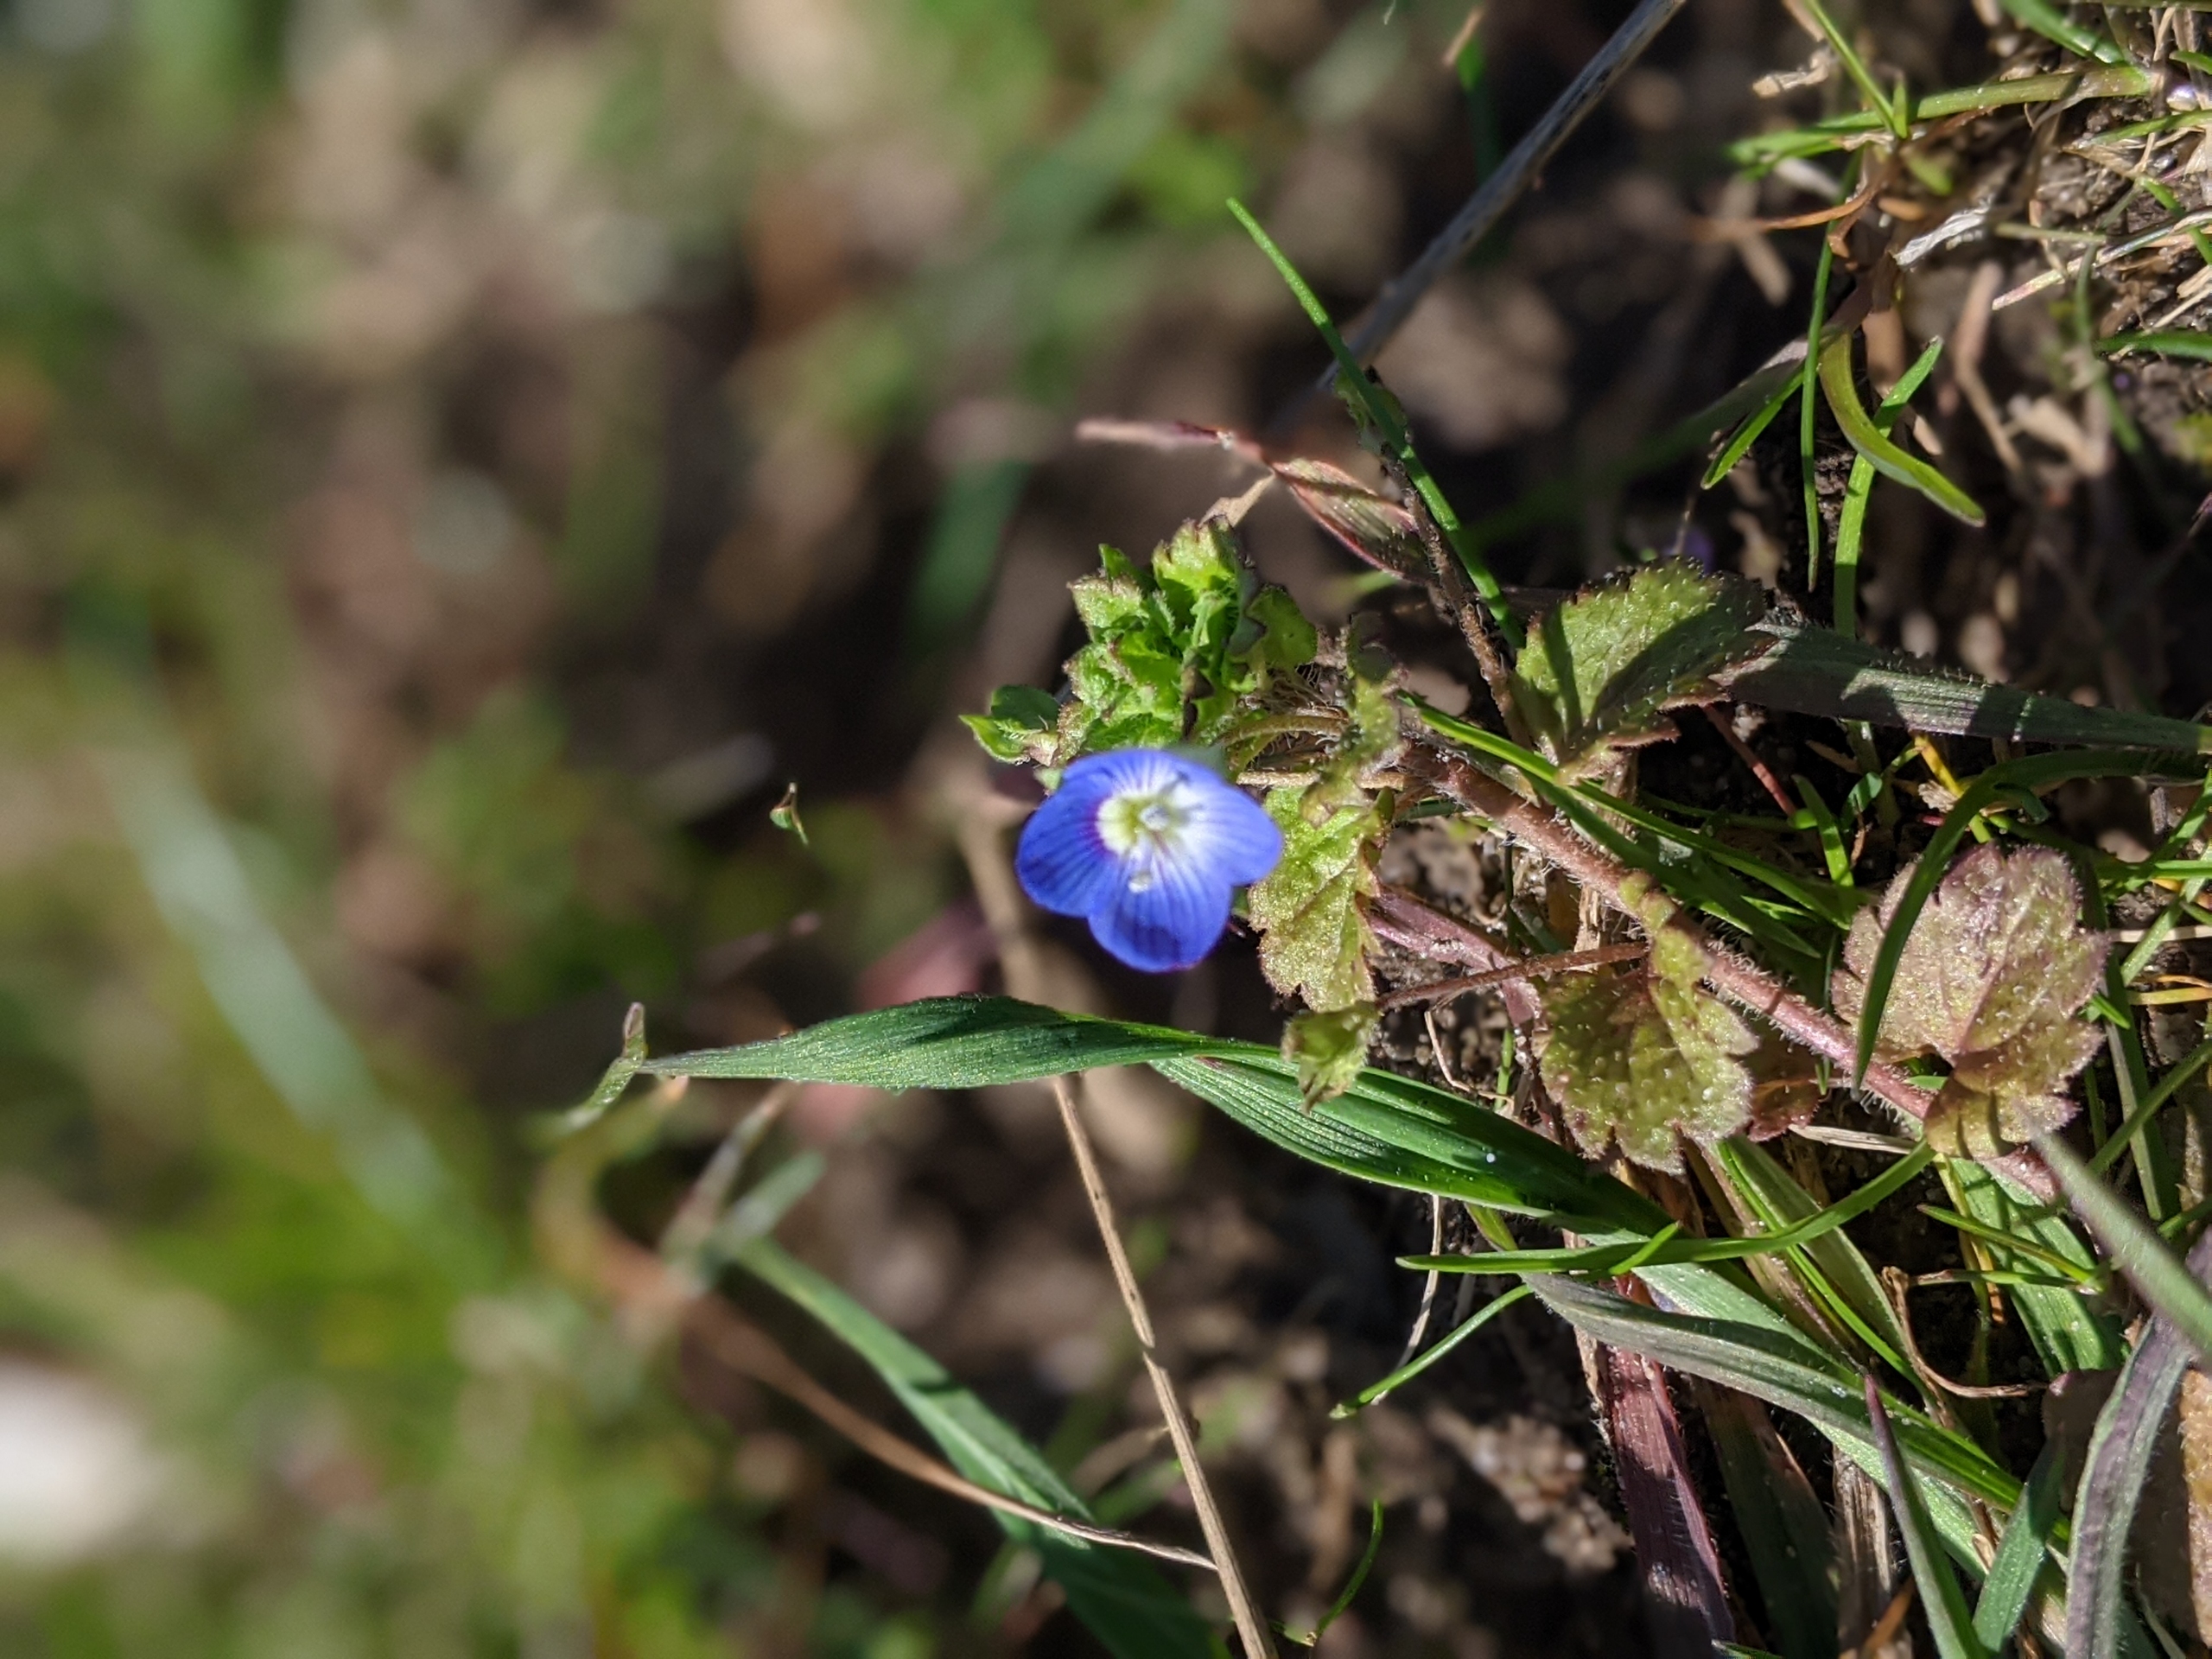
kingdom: Plantae
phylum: Tracheophyta
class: Magnoliopsida
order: Lamiales
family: Plantaginaceae
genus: Veronica
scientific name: Veronica persica
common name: Storkronet ærenpris
